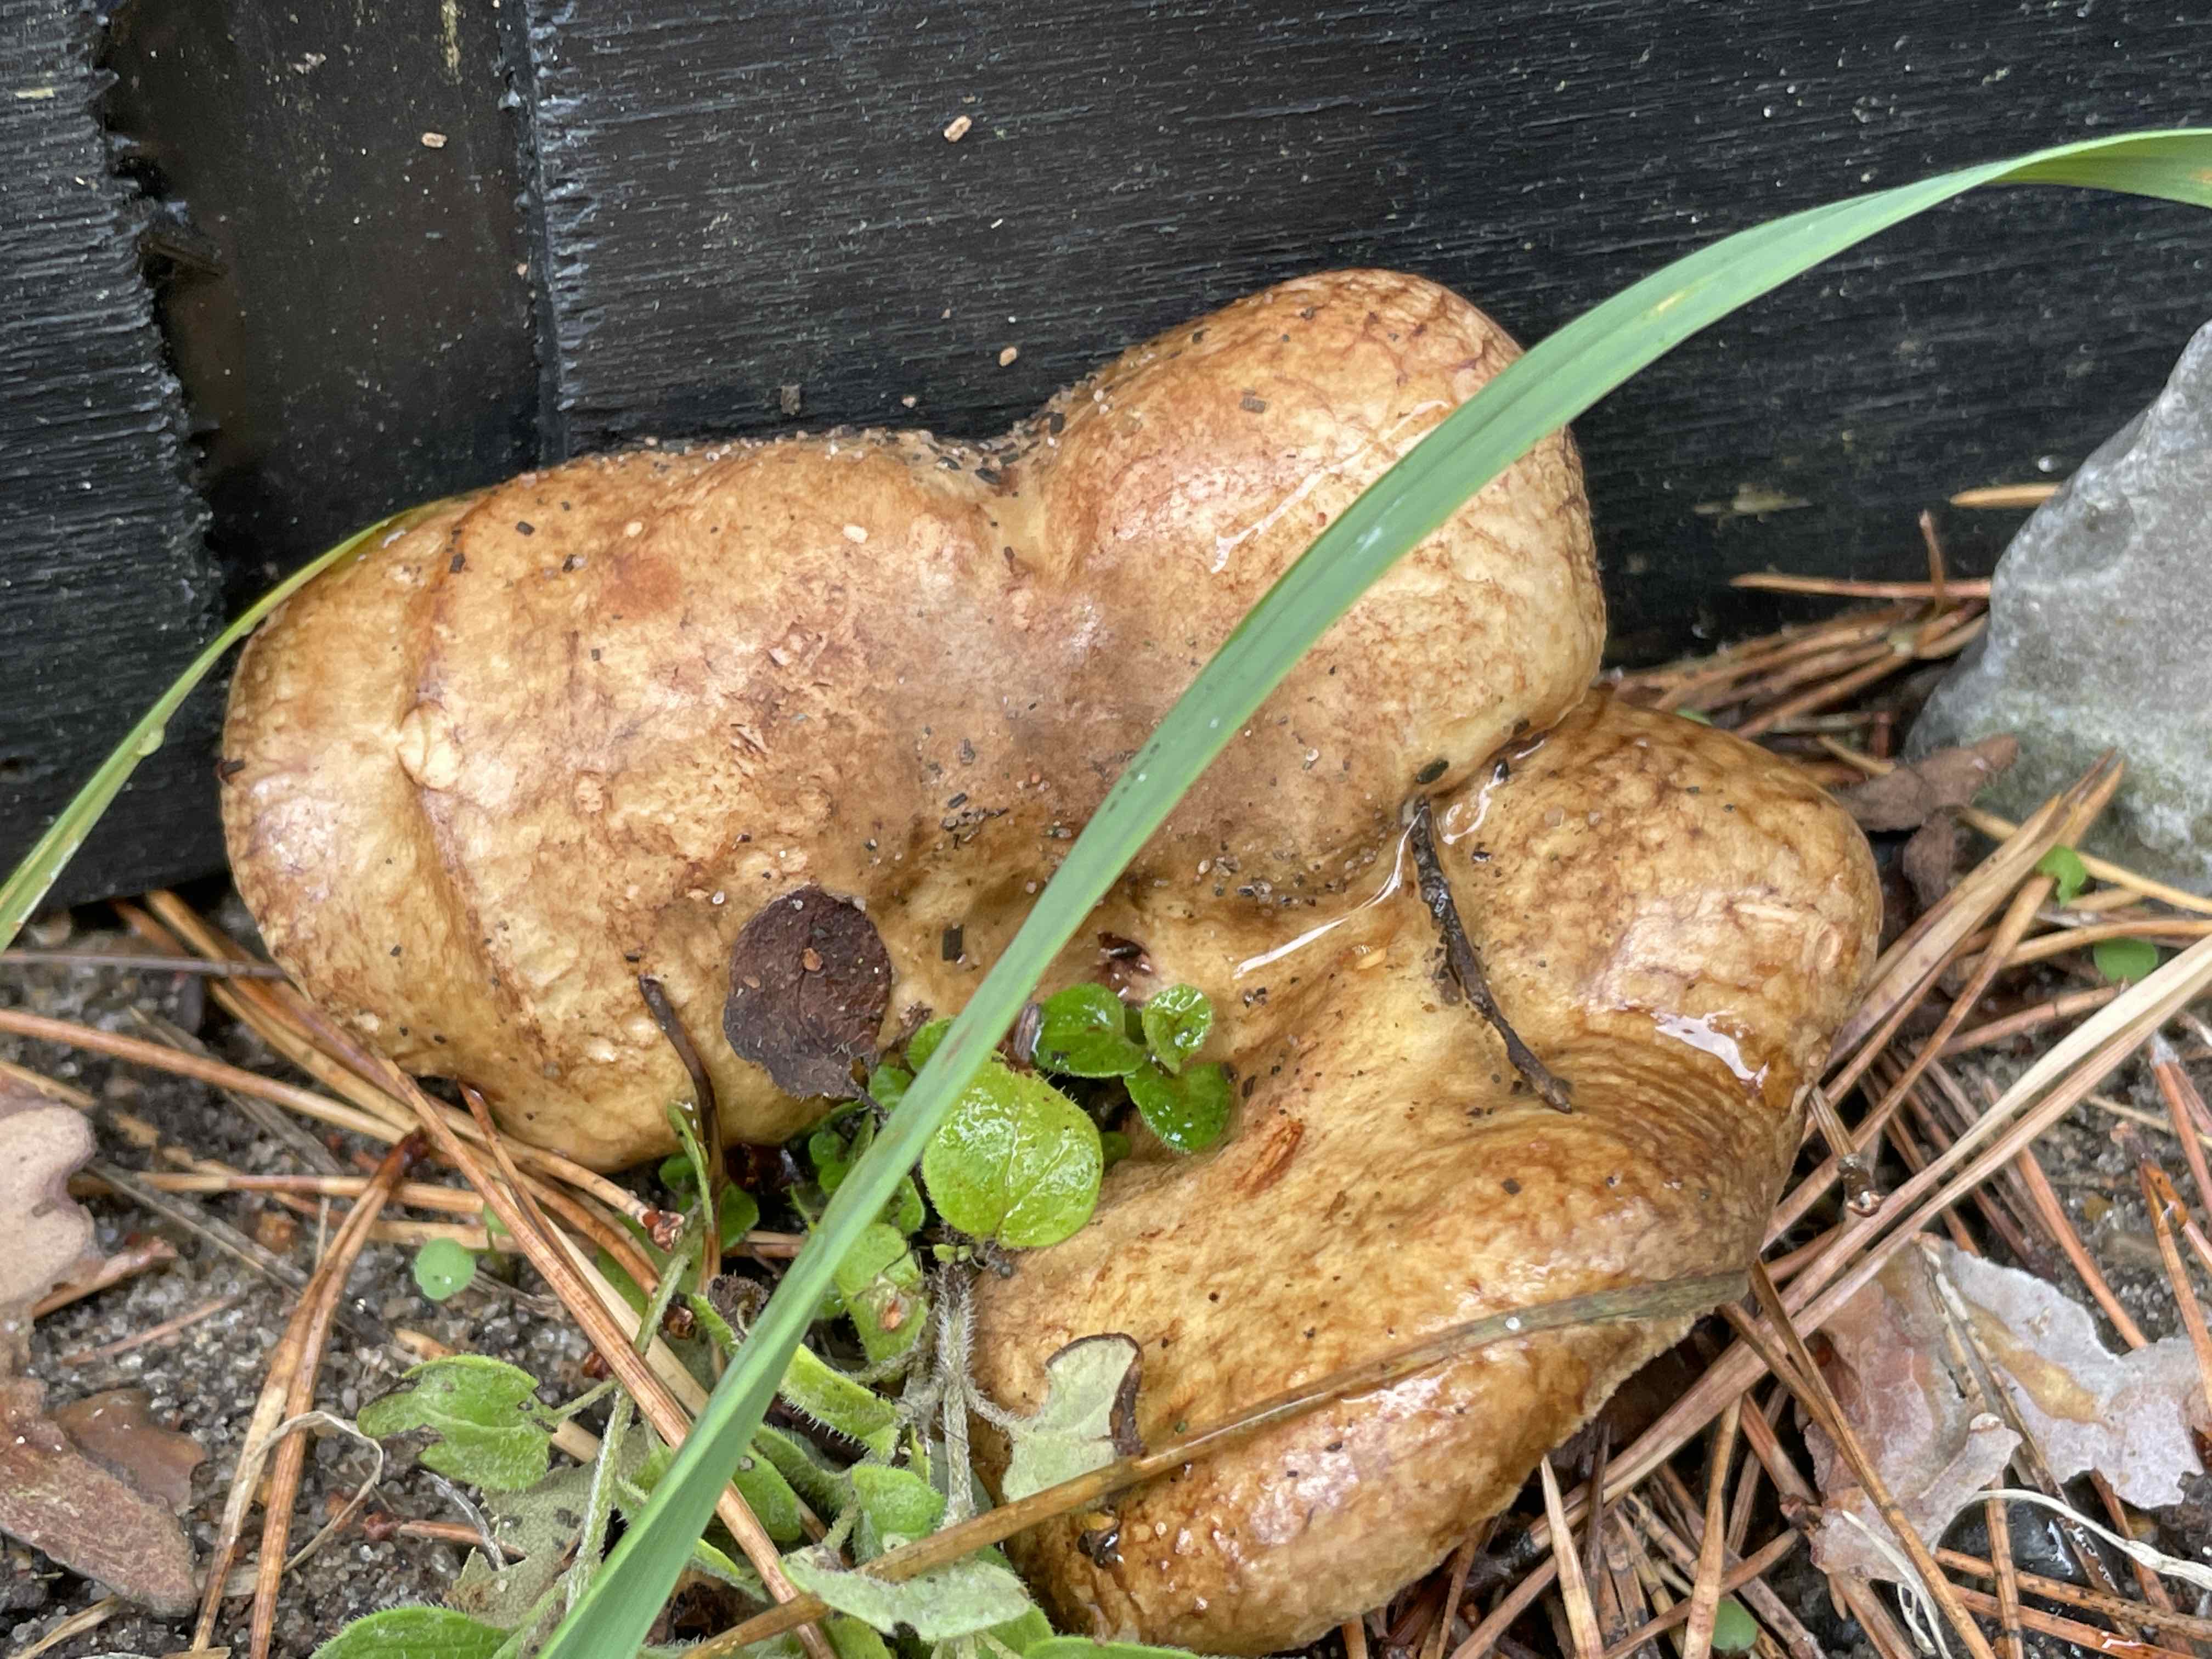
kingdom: Fungi
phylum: Basidiomycota
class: Agaricomycetes
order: Boletales
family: Paxillaceae
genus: Paxillus
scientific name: Paxillus involutus
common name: almindelig netbladhat
